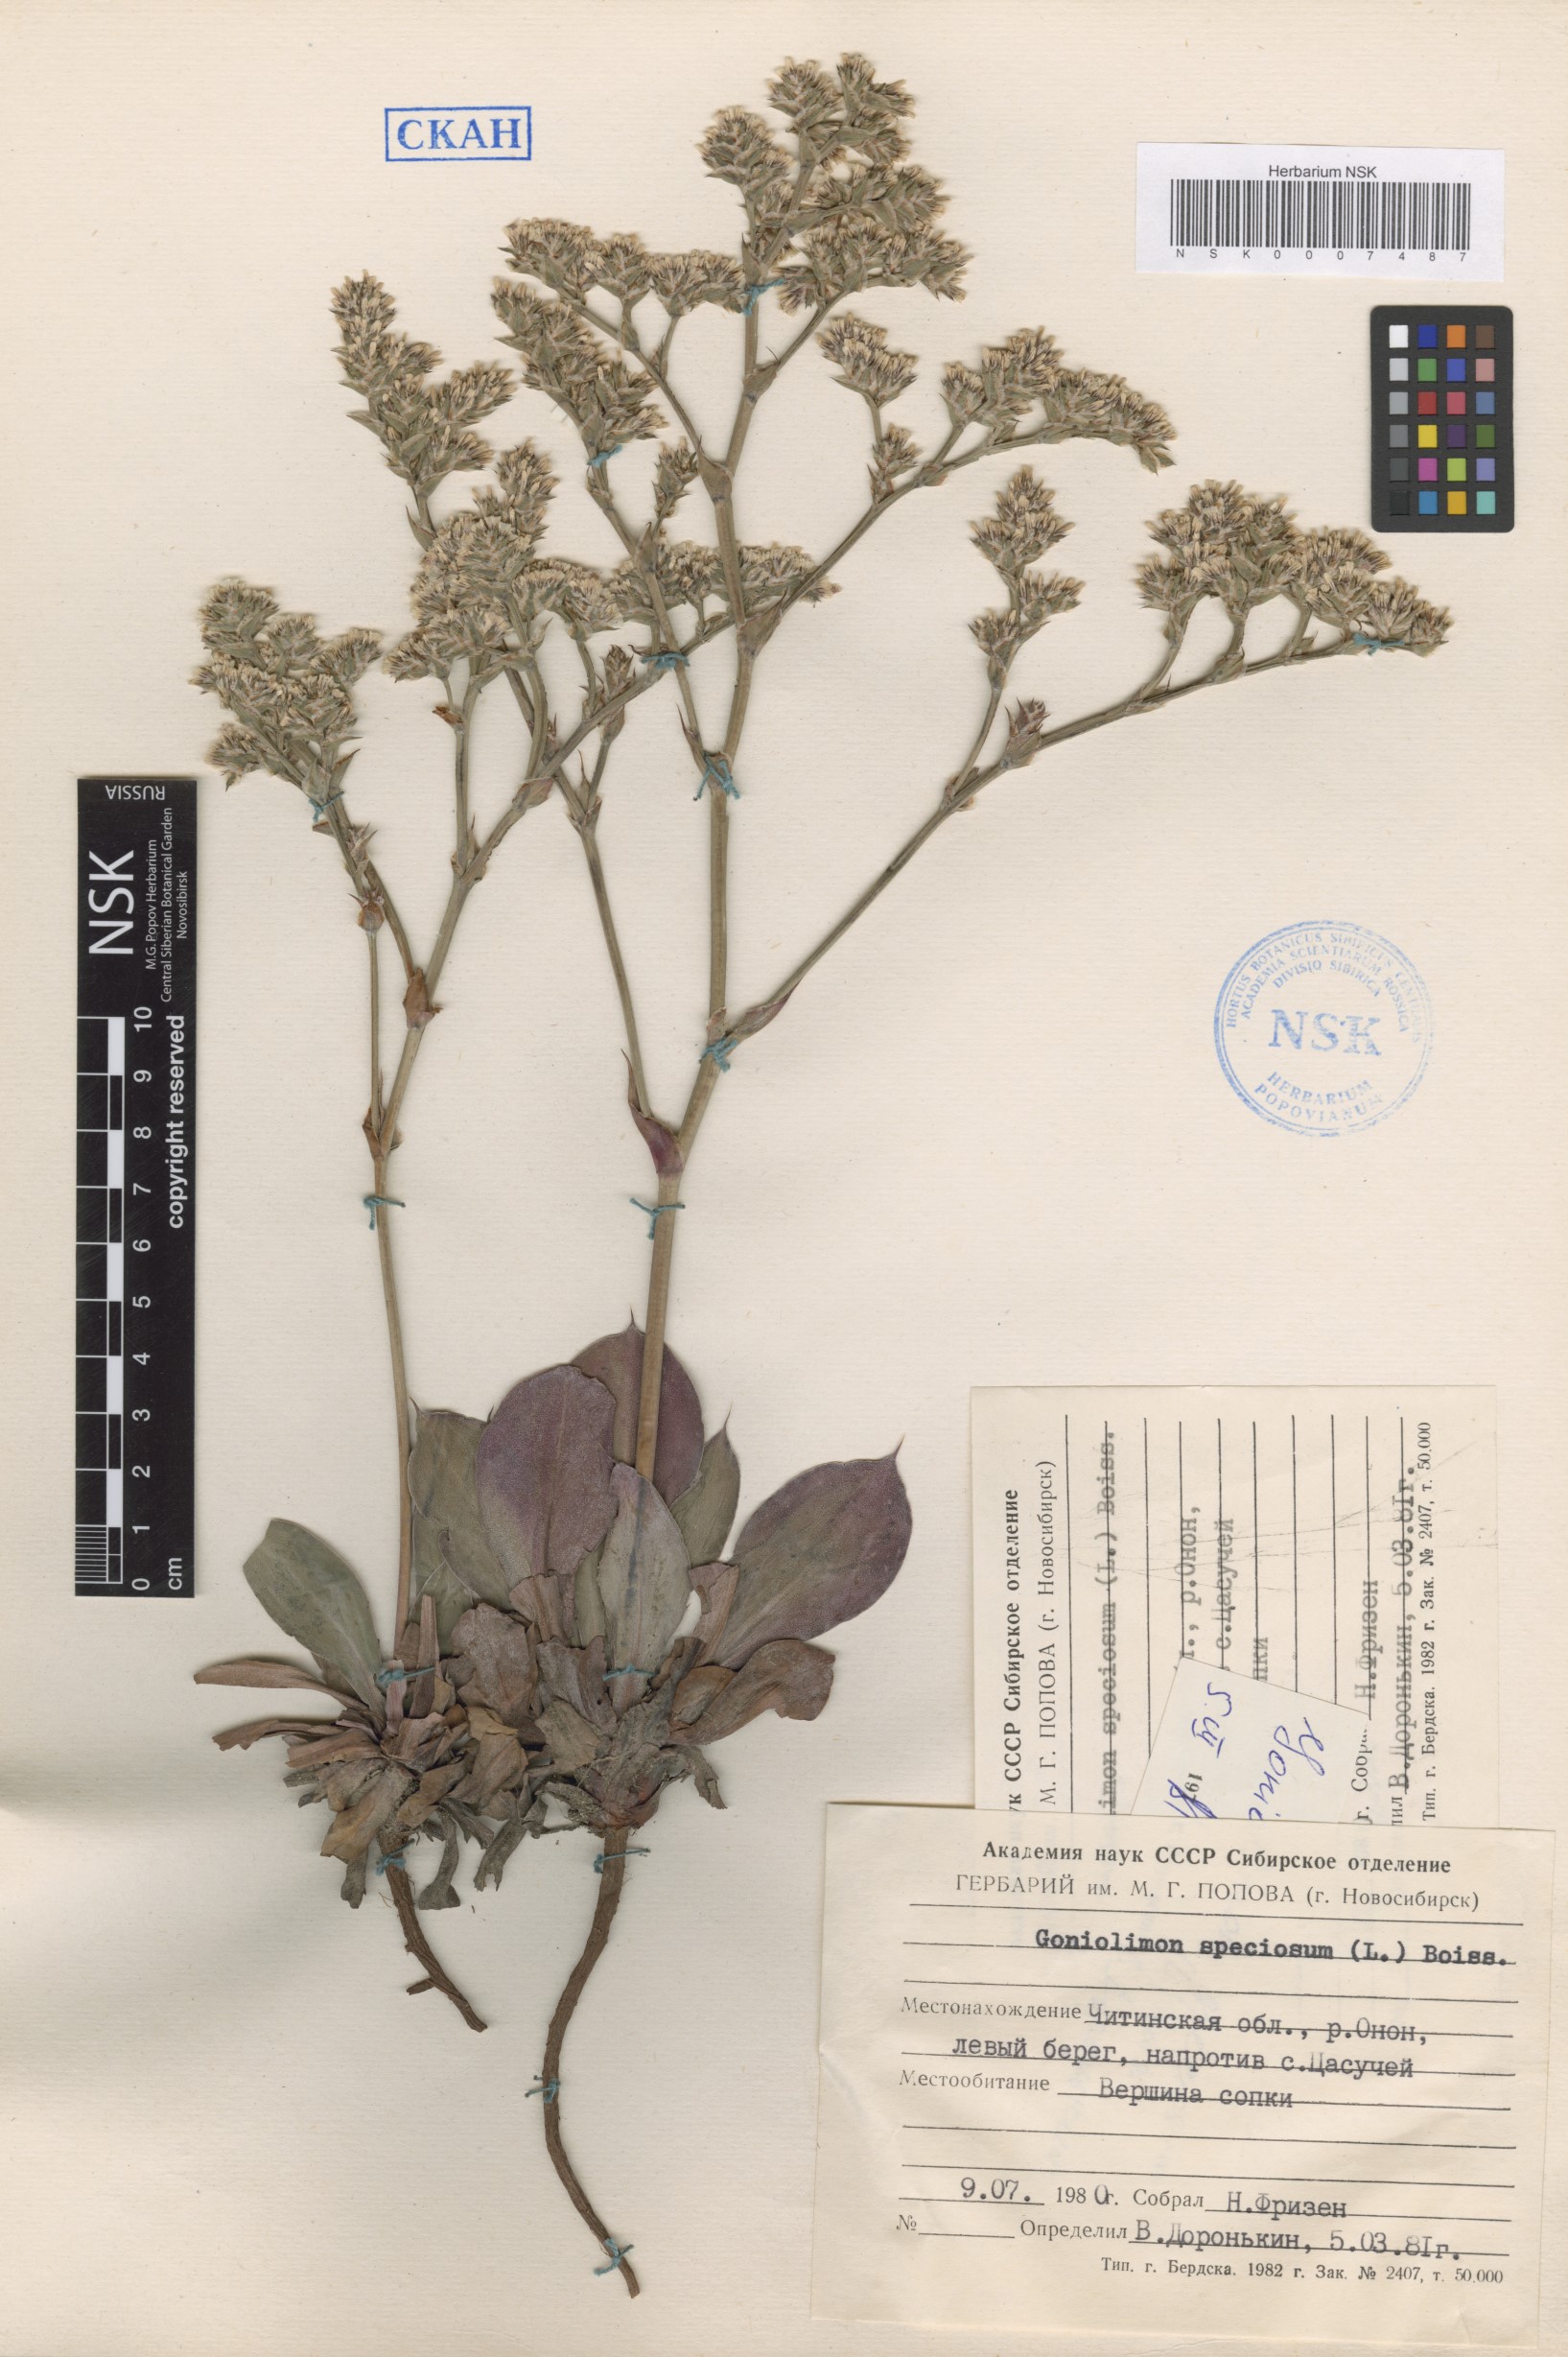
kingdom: Plantae
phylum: Tracheophyta
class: Magnoliopsida
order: Caryophyllales
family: Plumbaginaceae
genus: Goniolimon
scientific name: Goniolimon speciosum
